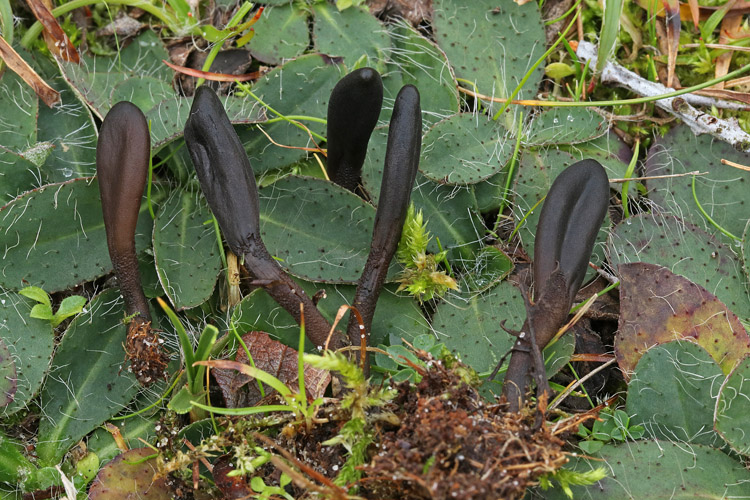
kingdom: Fungi
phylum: Ascomycota
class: Geoglossomycetes
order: Geoglossales
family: Geoglossaceae
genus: Hemileucoglossum
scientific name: Hemileucoglossum elongatum
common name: småsporet jordtunge
